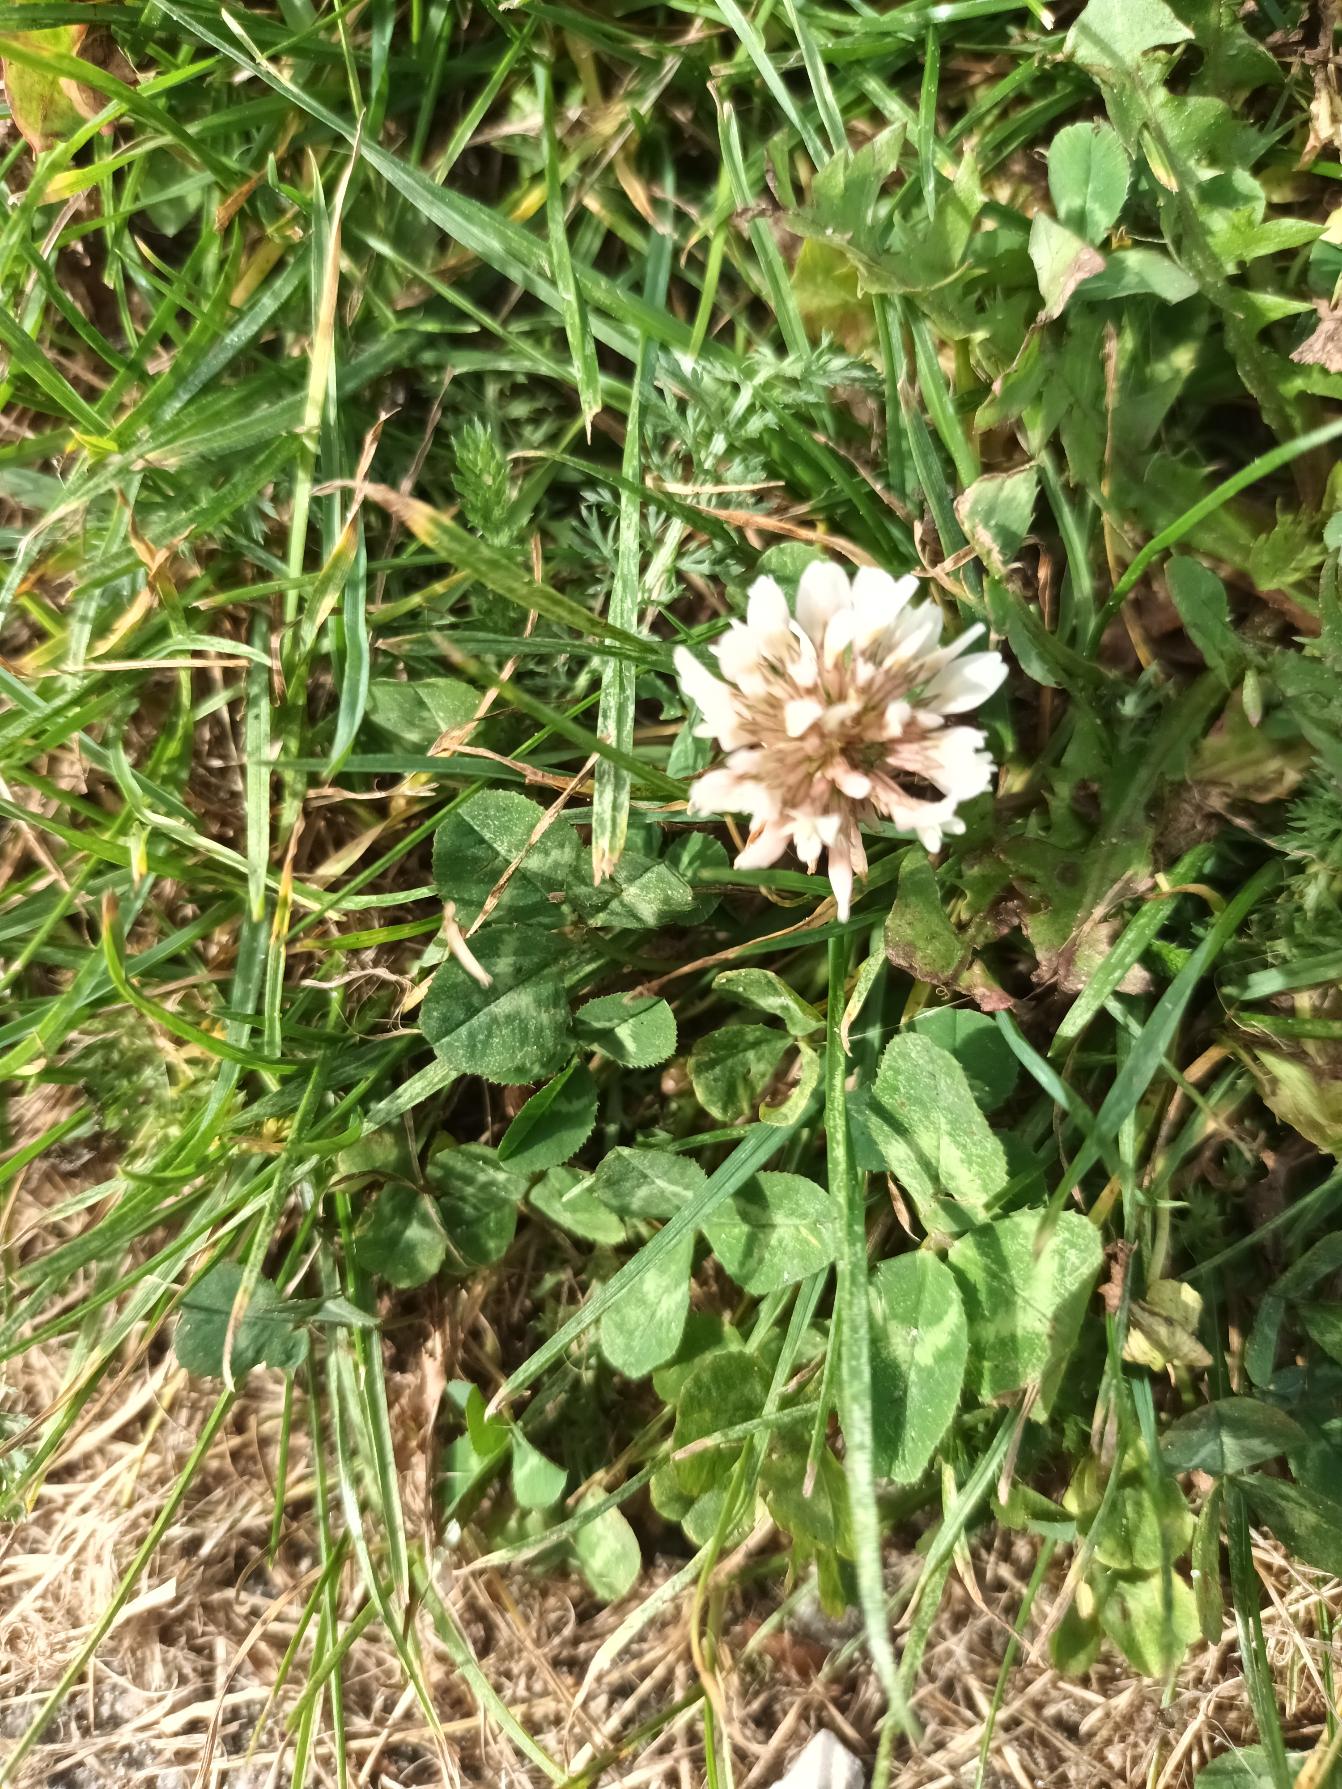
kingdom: Plantae
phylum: Tracheophyta
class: Magnoliopsida
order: Fabales
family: Fabaceae
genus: Trifolium
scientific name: Trifolium repens
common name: Hvid-kløver
